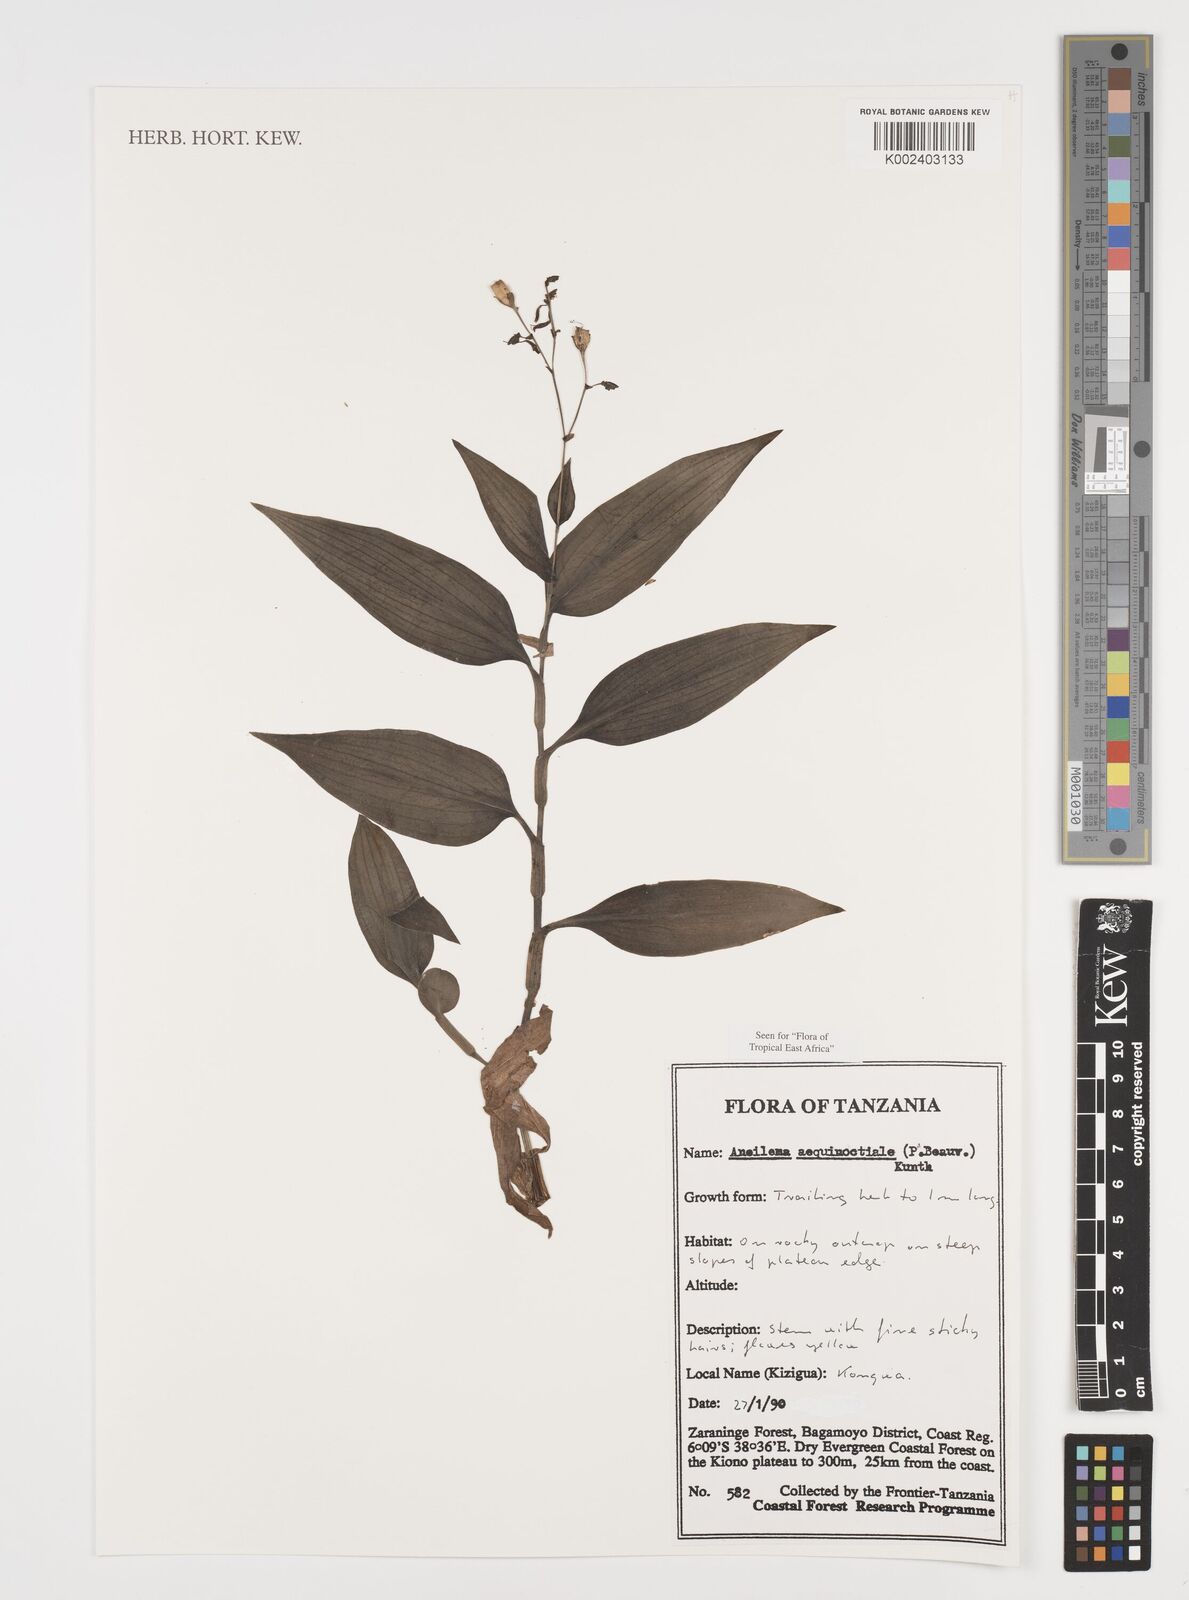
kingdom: Plantae
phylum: Tracheophyta
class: Liliopsida
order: Commelinales
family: Commelinaceae
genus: Aneilema
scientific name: Aneilema aequinoctiale
